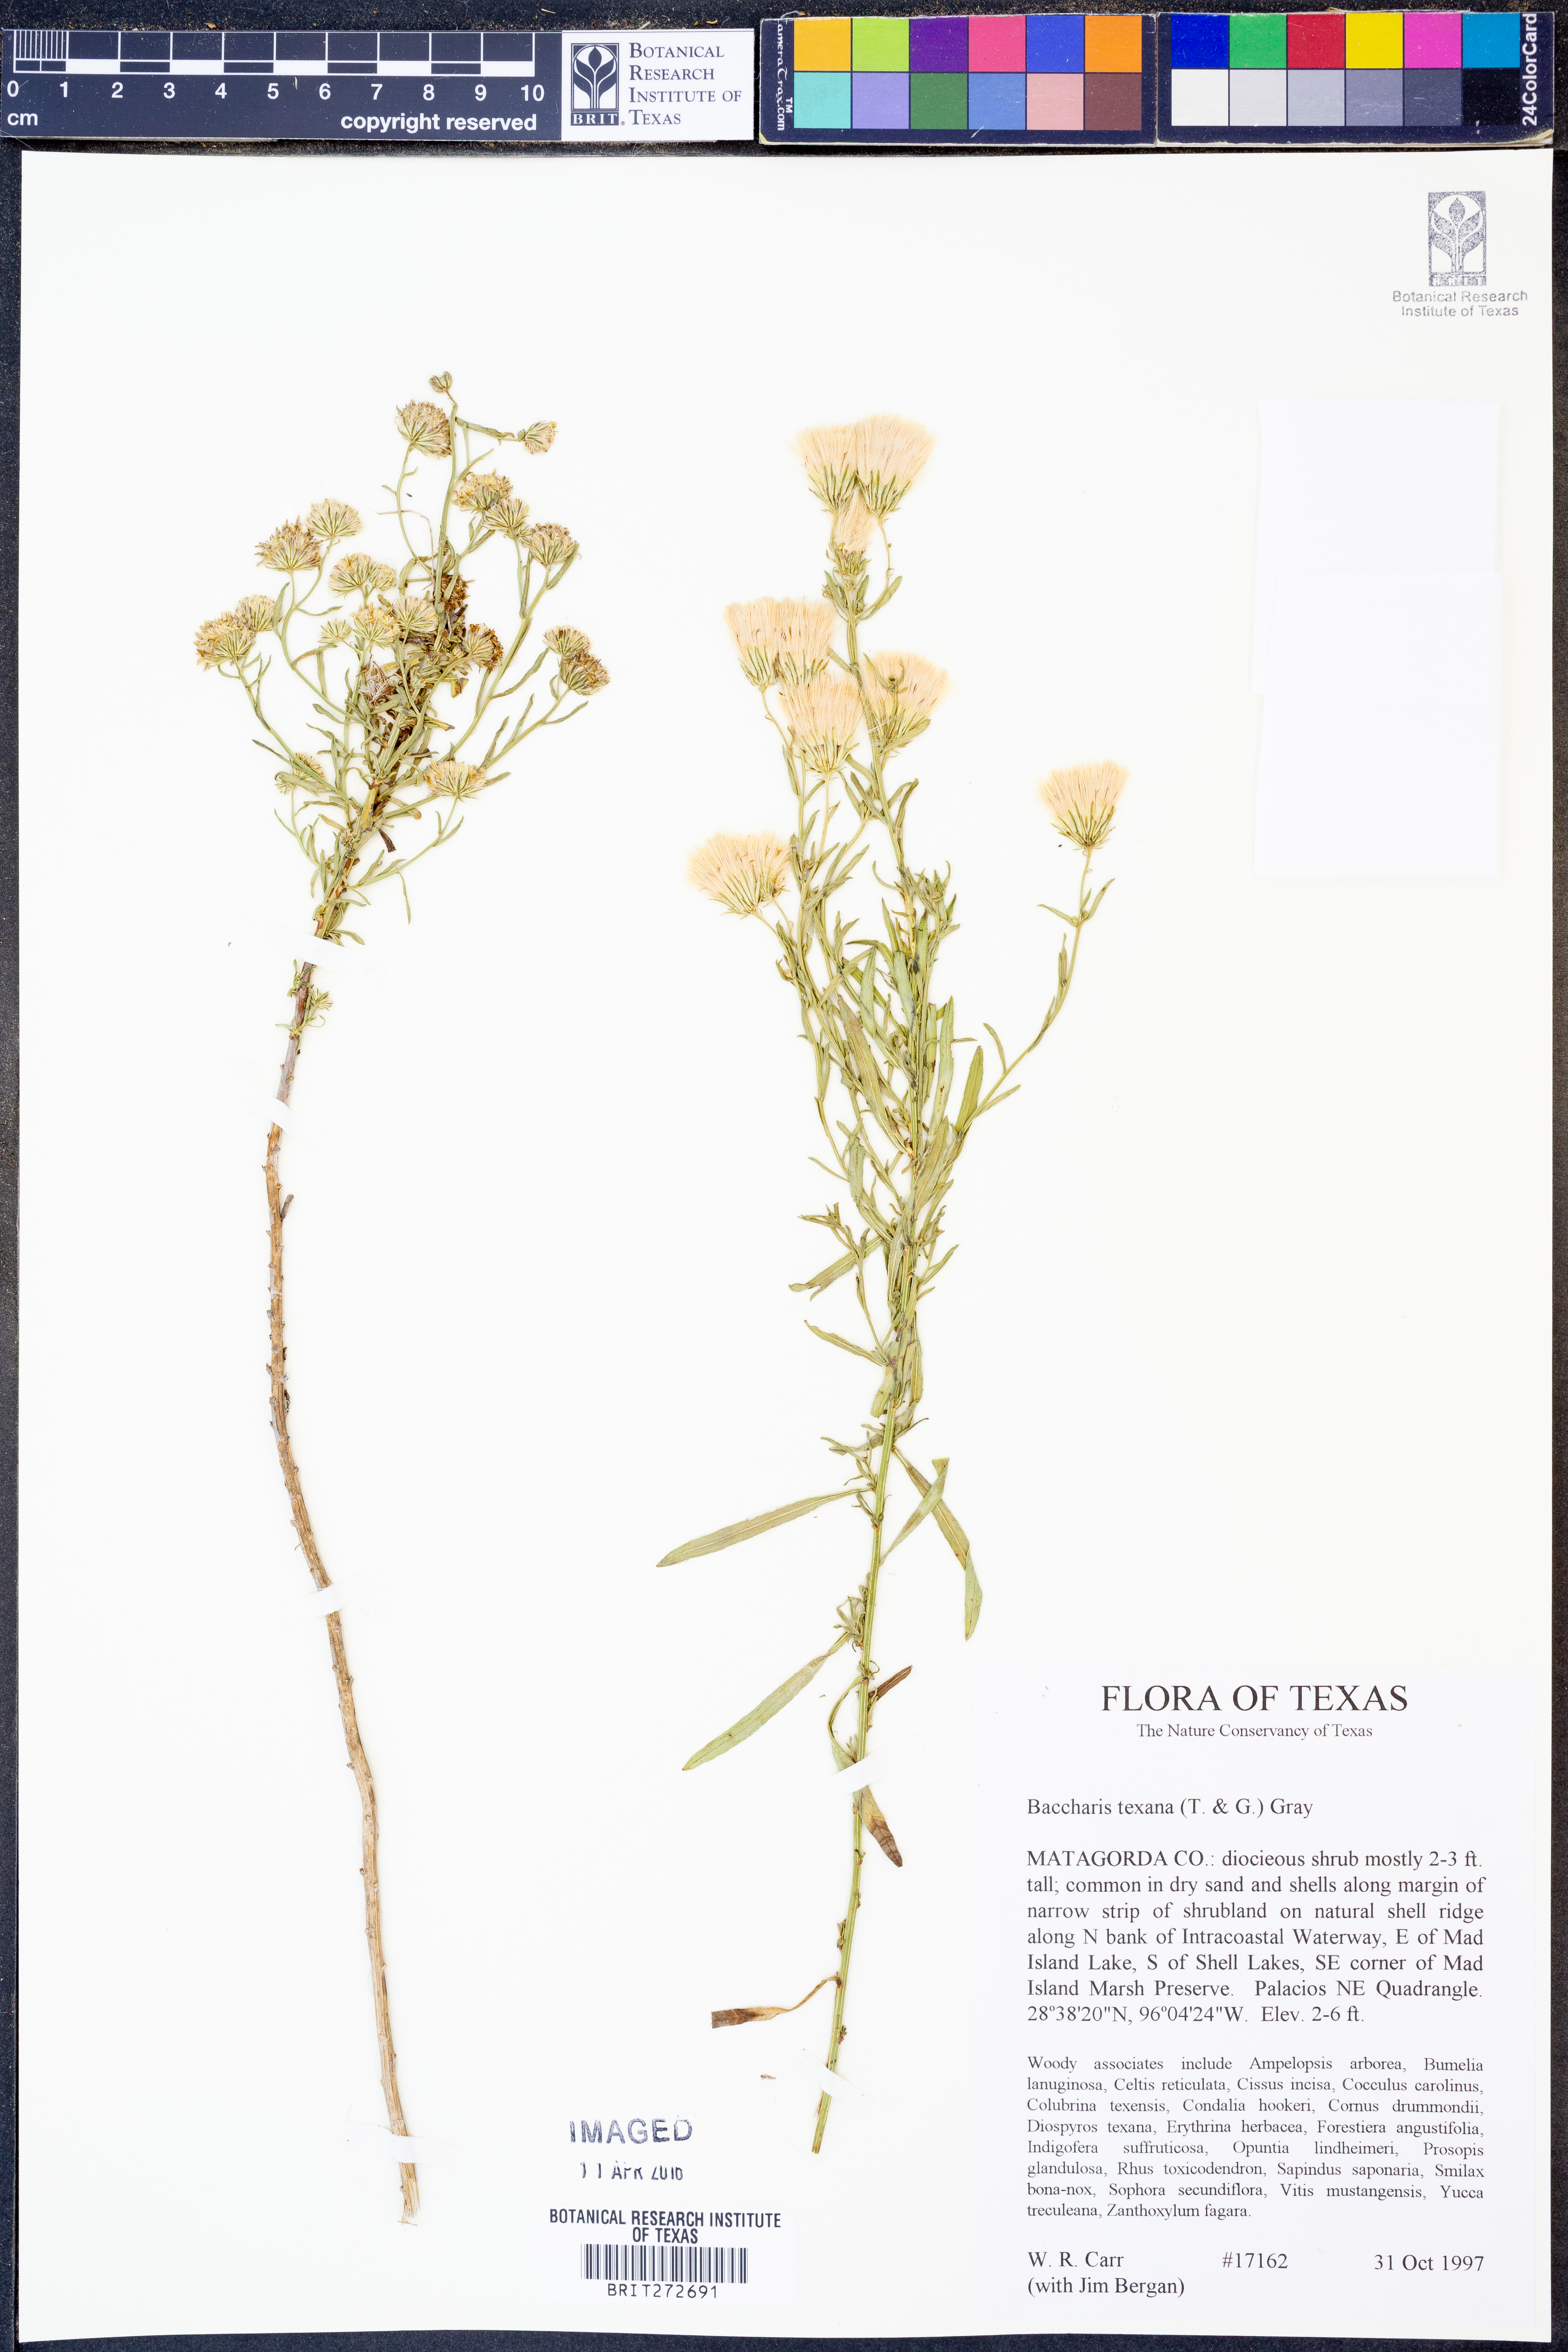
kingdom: Plantae
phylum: Tracheophyta
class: Magnoliopsida
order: Asterales
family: Asteraceae
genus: Baccharis
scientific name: Baccharis texana
